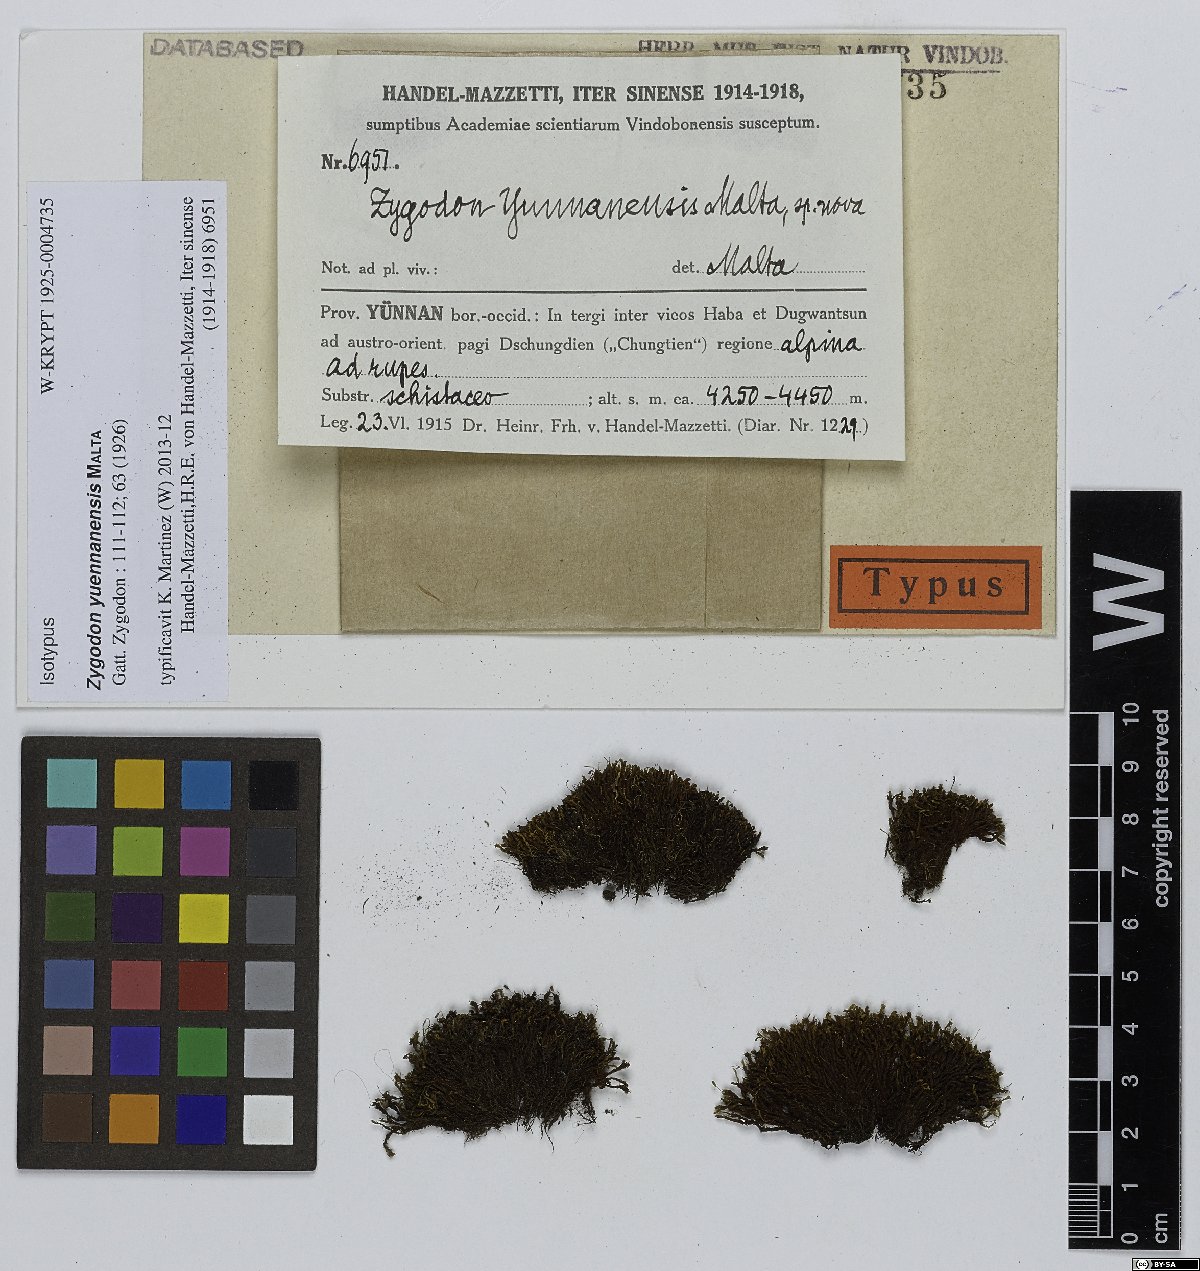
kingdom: Plantae
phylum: Bryophyta
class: Bryopsida
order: Orthotrichales
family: Orthotrichaceae
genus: Zygodon
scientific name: Zygodon yuennanensis
